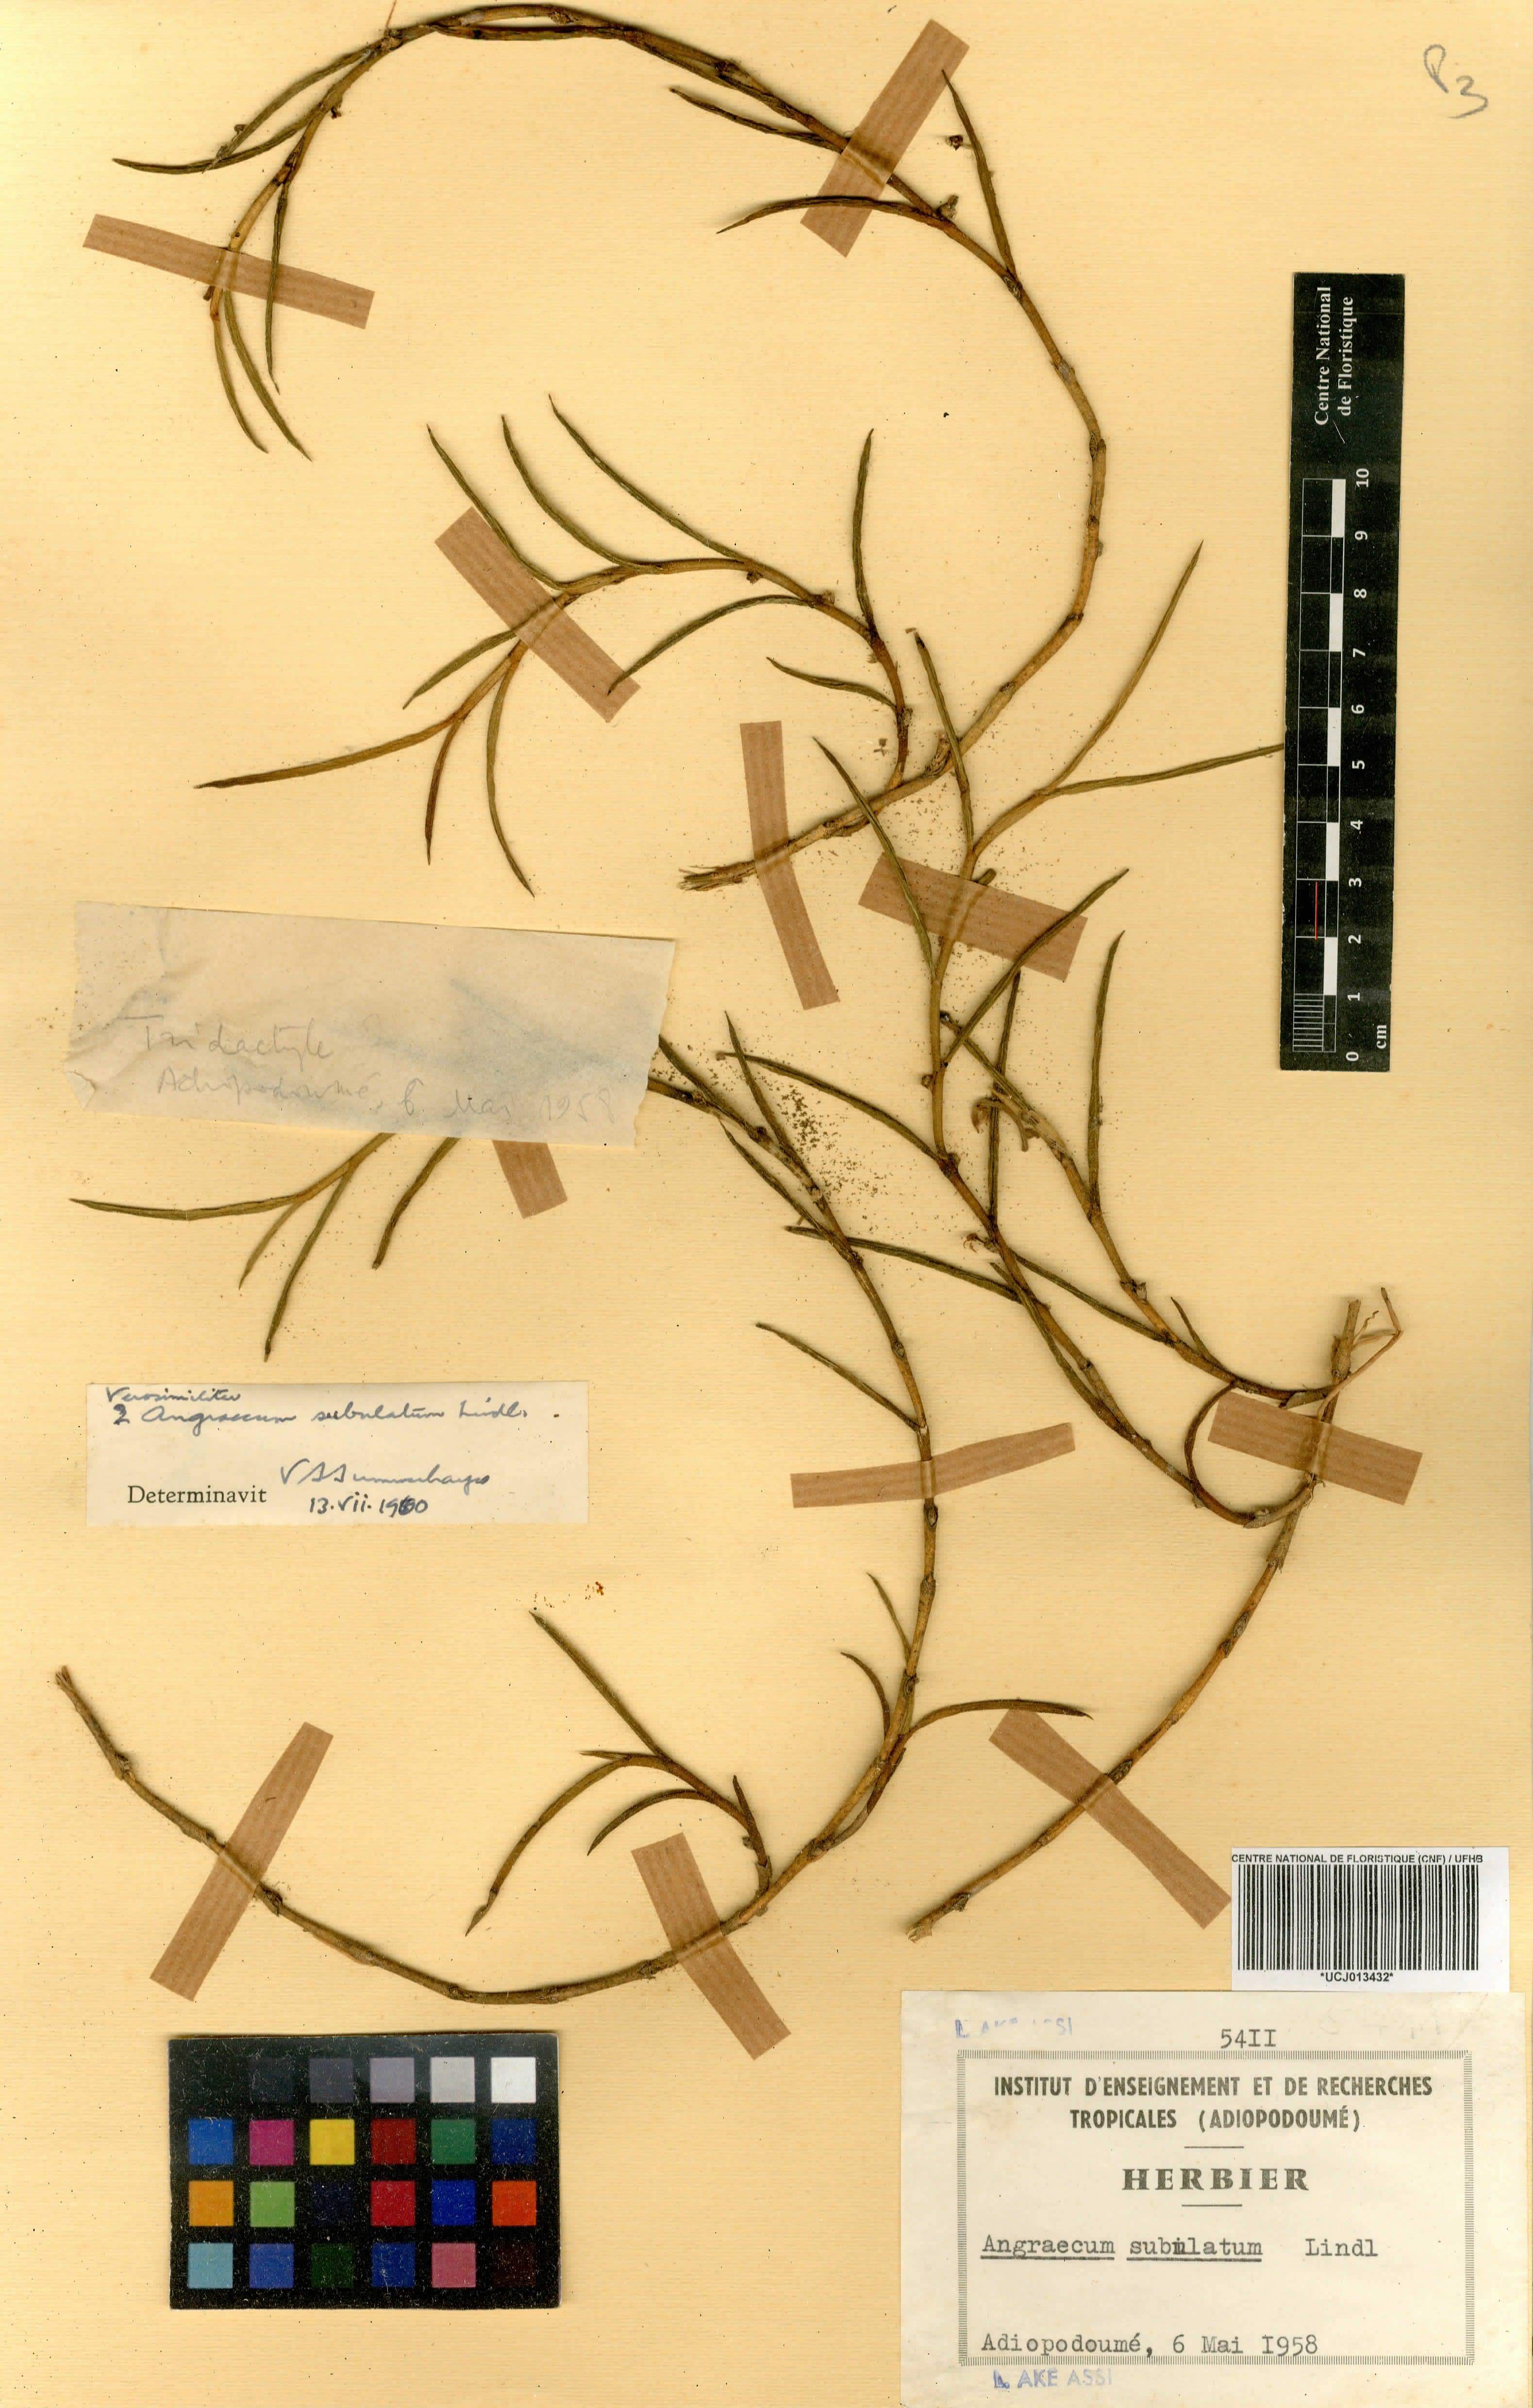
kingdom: Plantae
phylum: Tracheophyta
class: Liliopsida
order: Asparagales
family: Orchidaceae
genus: Afropectinariella
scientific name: Afropectinariella subulata
